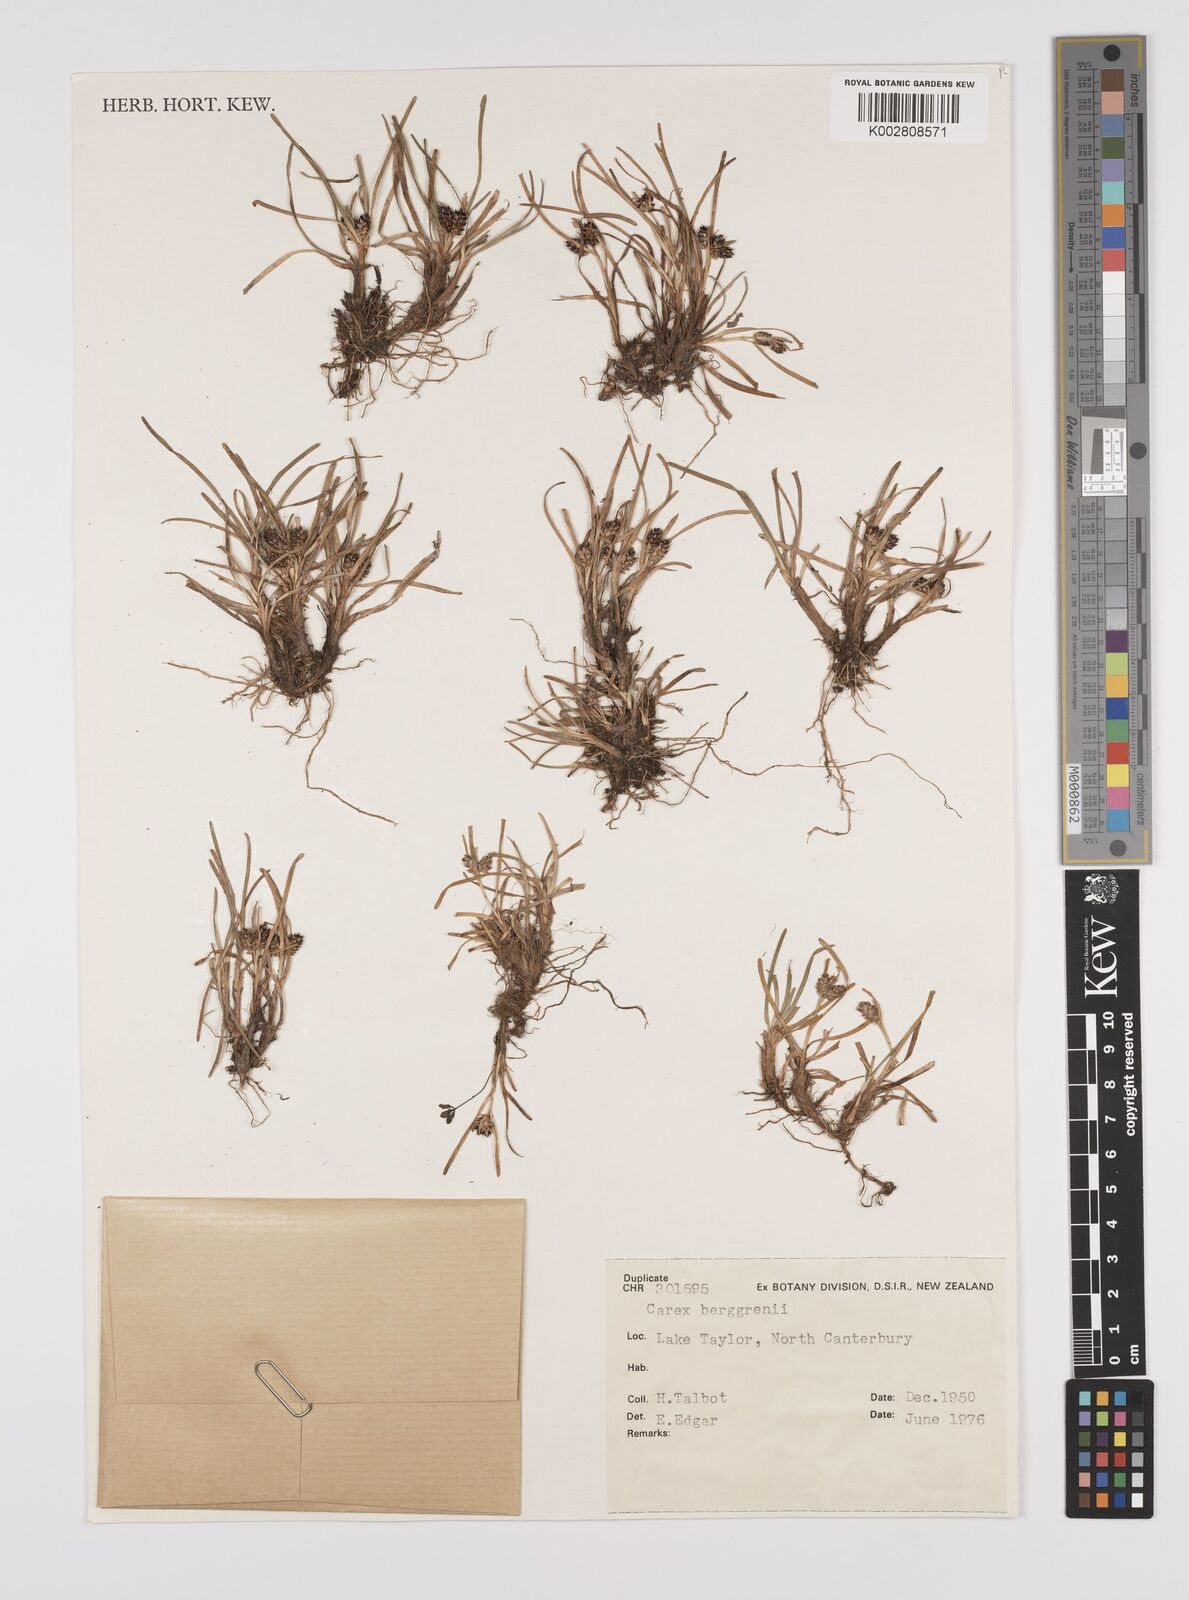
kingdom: Plantae
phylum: Tracheophyta
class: Liliopsida
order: Poales
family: Cyperaceae
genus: Carex
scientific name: Carex talbotii
